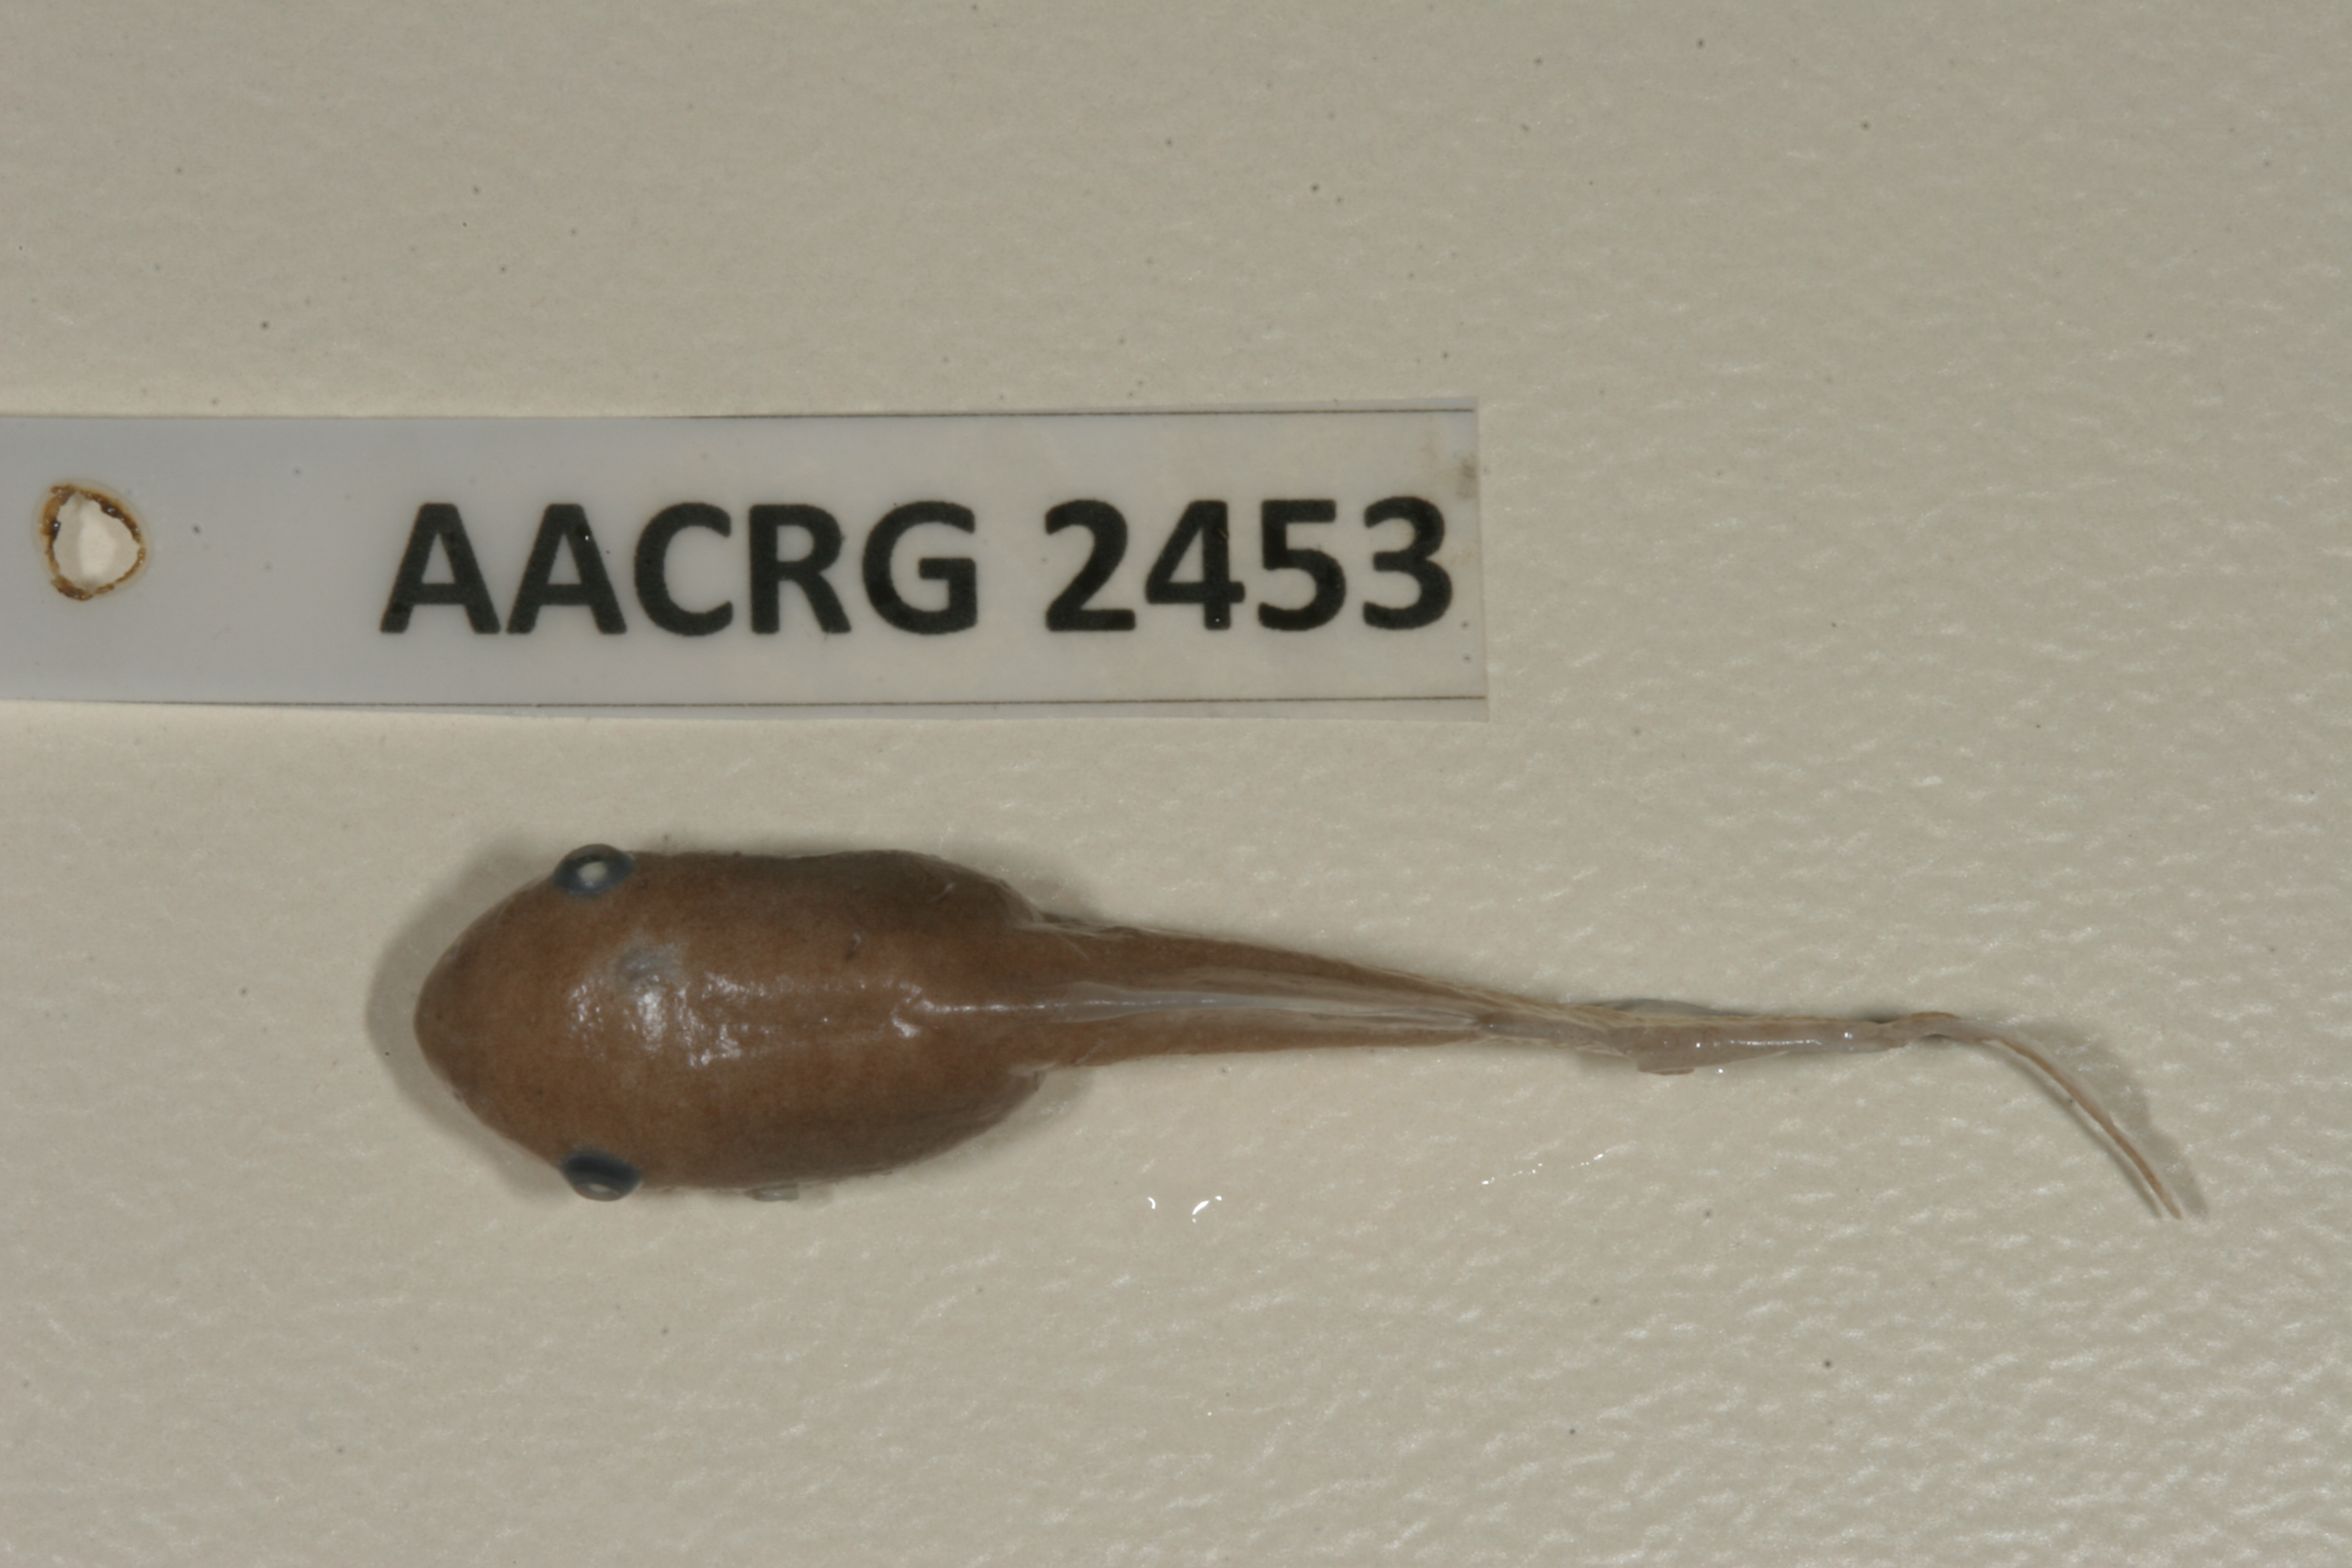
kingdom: Animalia
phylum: Chordata
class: Amphibia
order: Anura
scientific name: Anura
